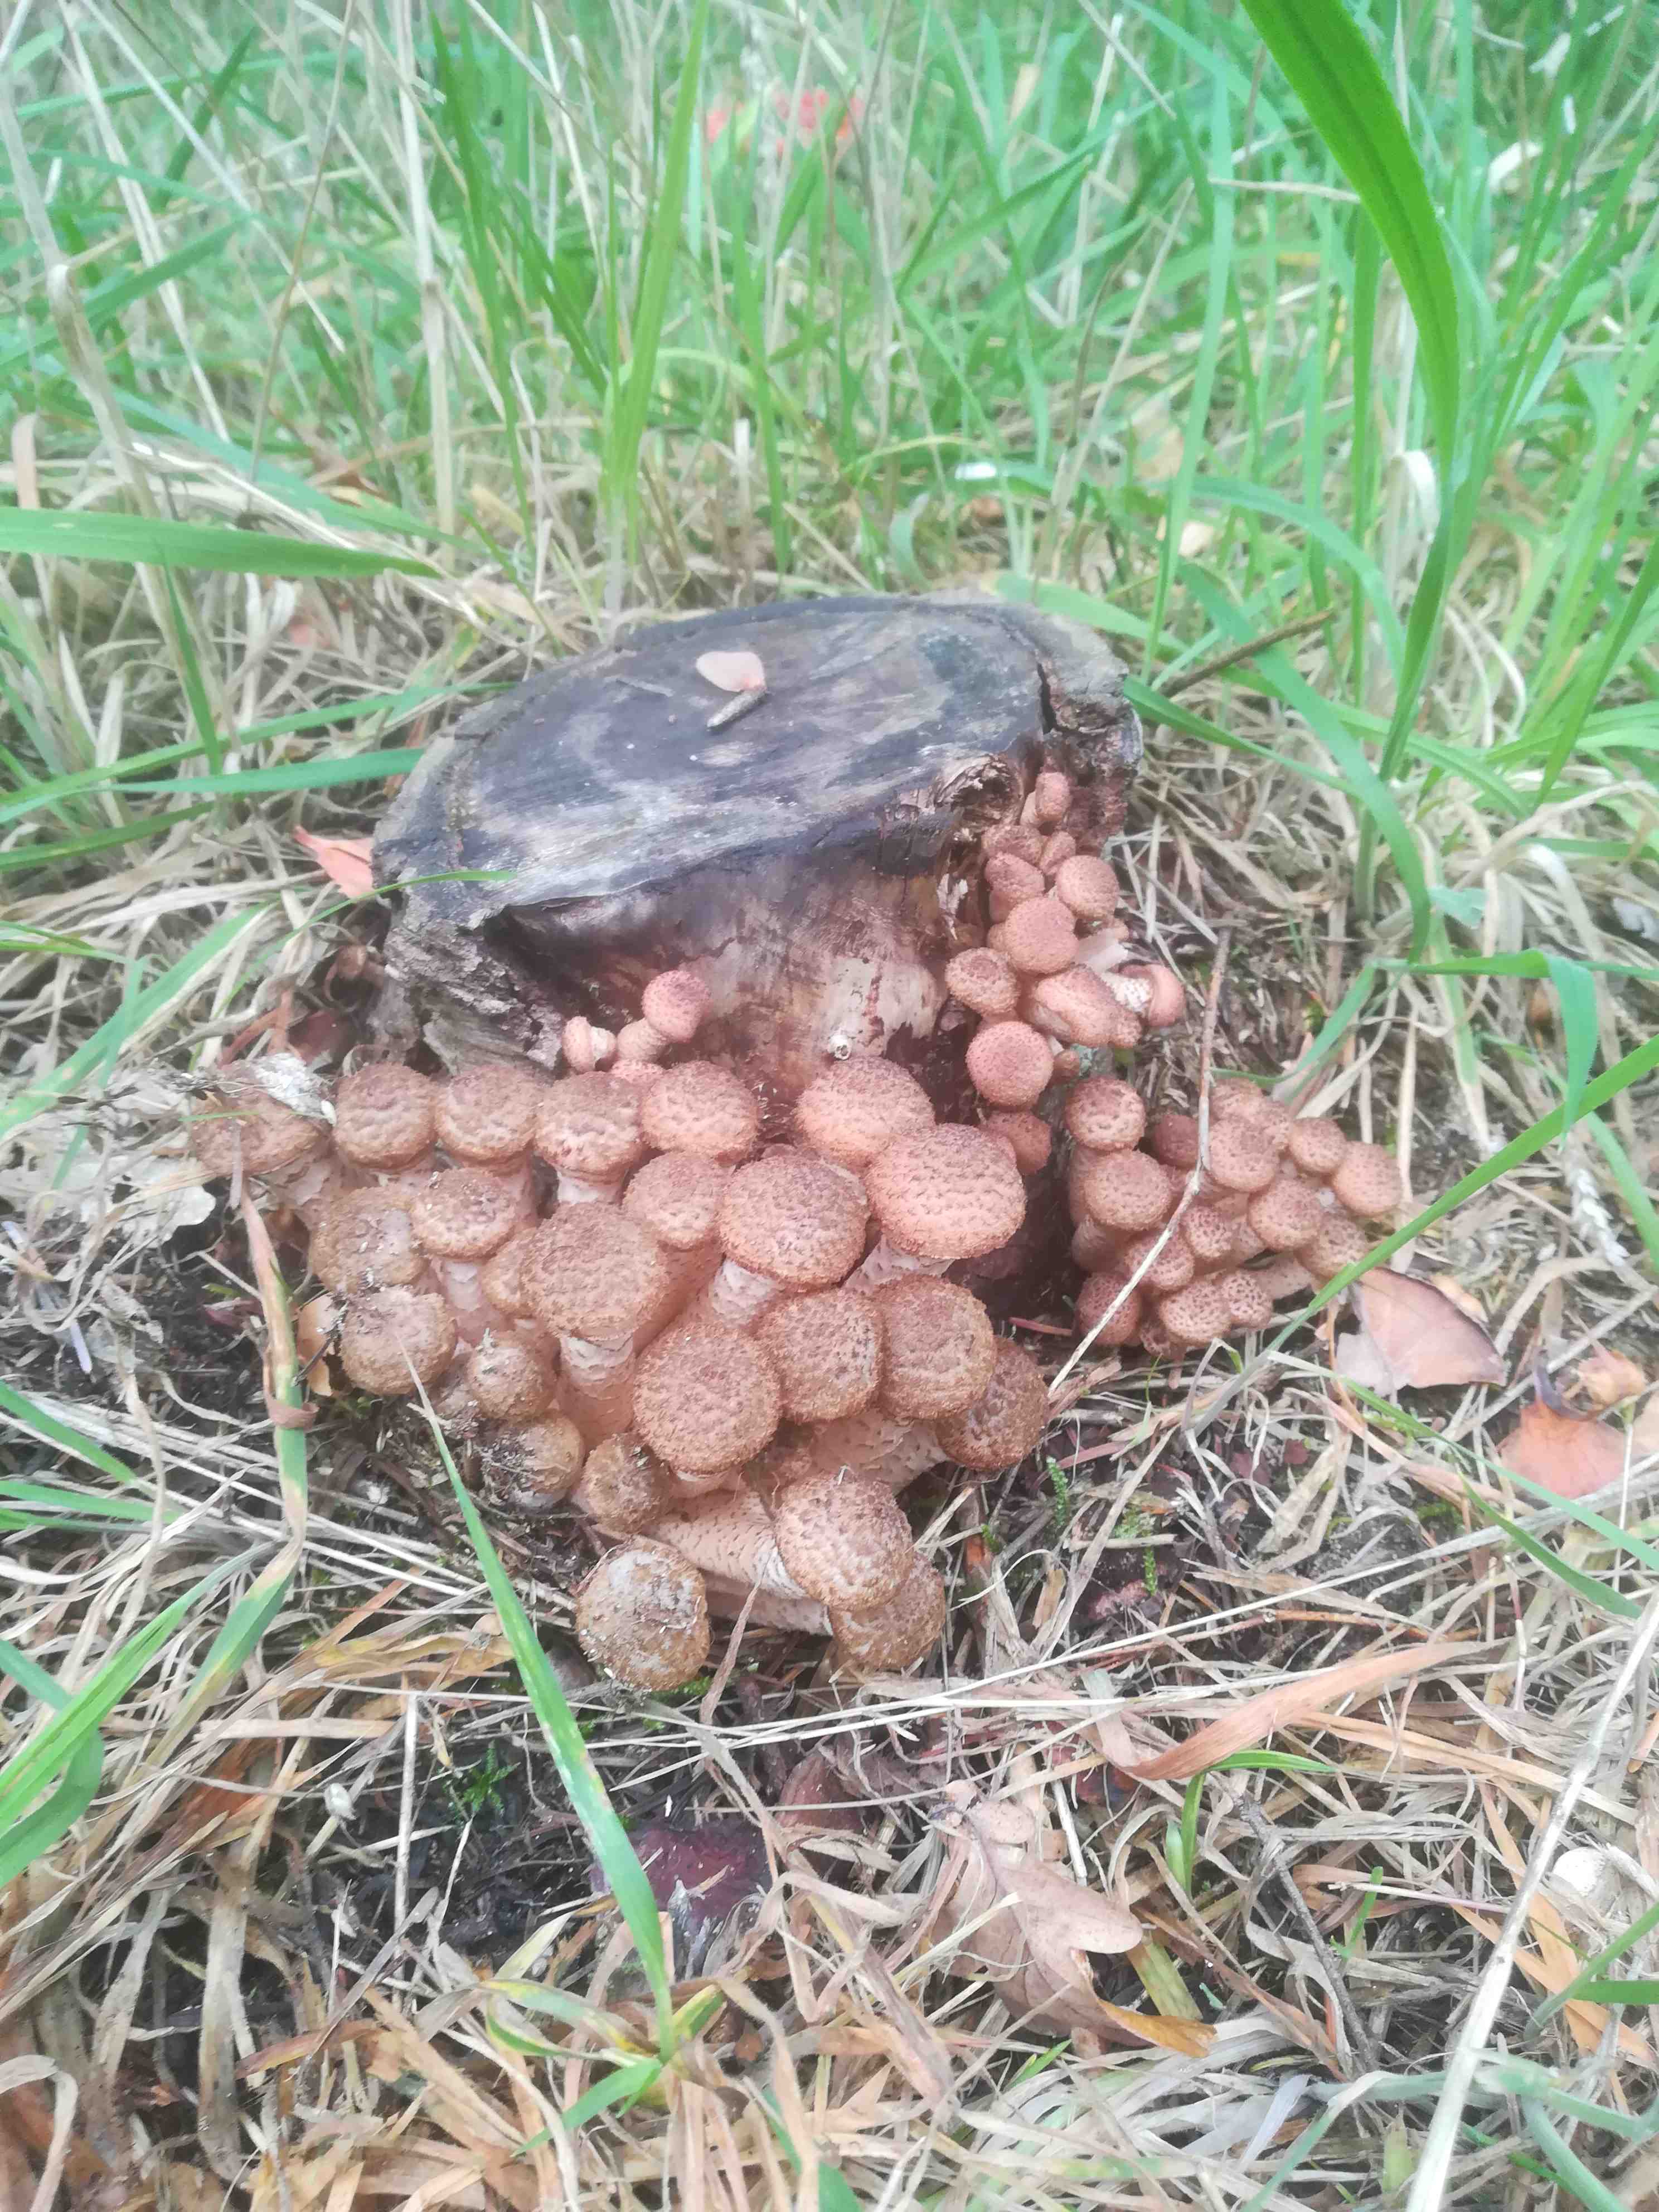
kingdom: Fungi
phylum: Basidiomycota
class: Agaricomycetes
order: Agaricales
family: Physalacriaceae
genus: Armillaria
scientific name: Armillaria ostoyae
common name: mørk honningsvamp
